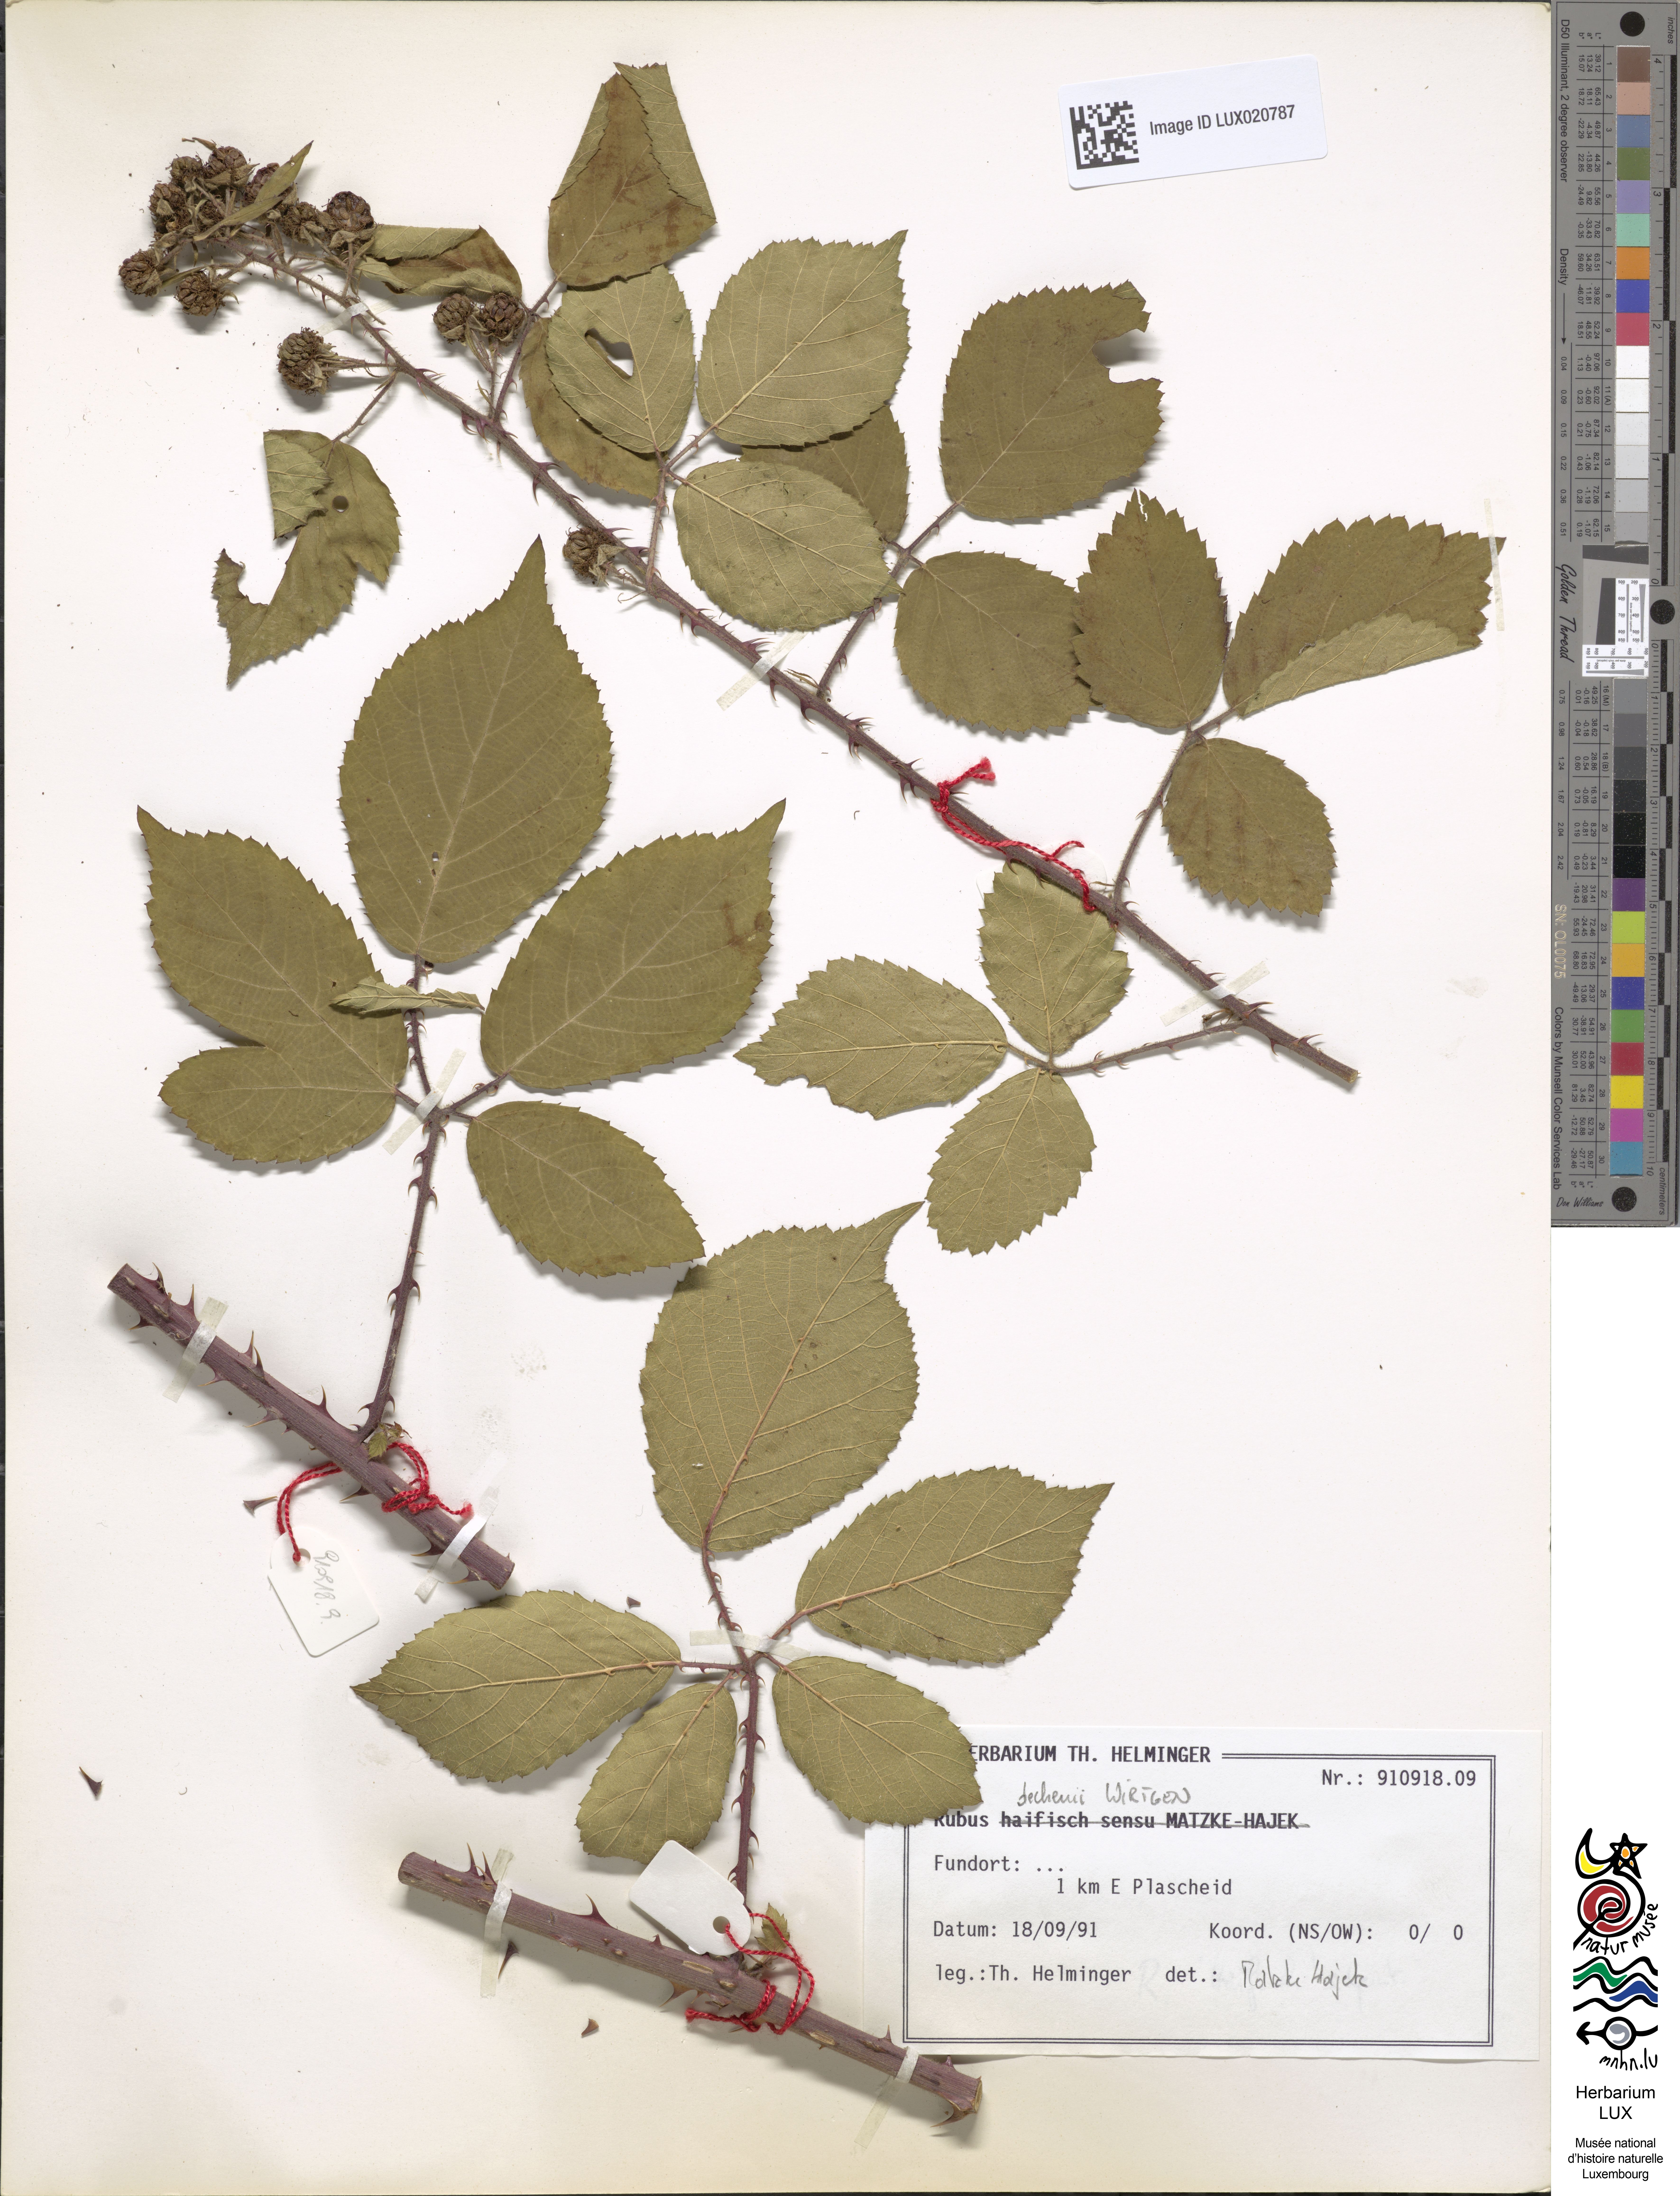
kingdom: Plantae
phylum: Tracheophyta
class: Magnoliopsida
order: Rosales
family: Rosaceae
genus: Rubus
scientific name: Rubus dechenii
